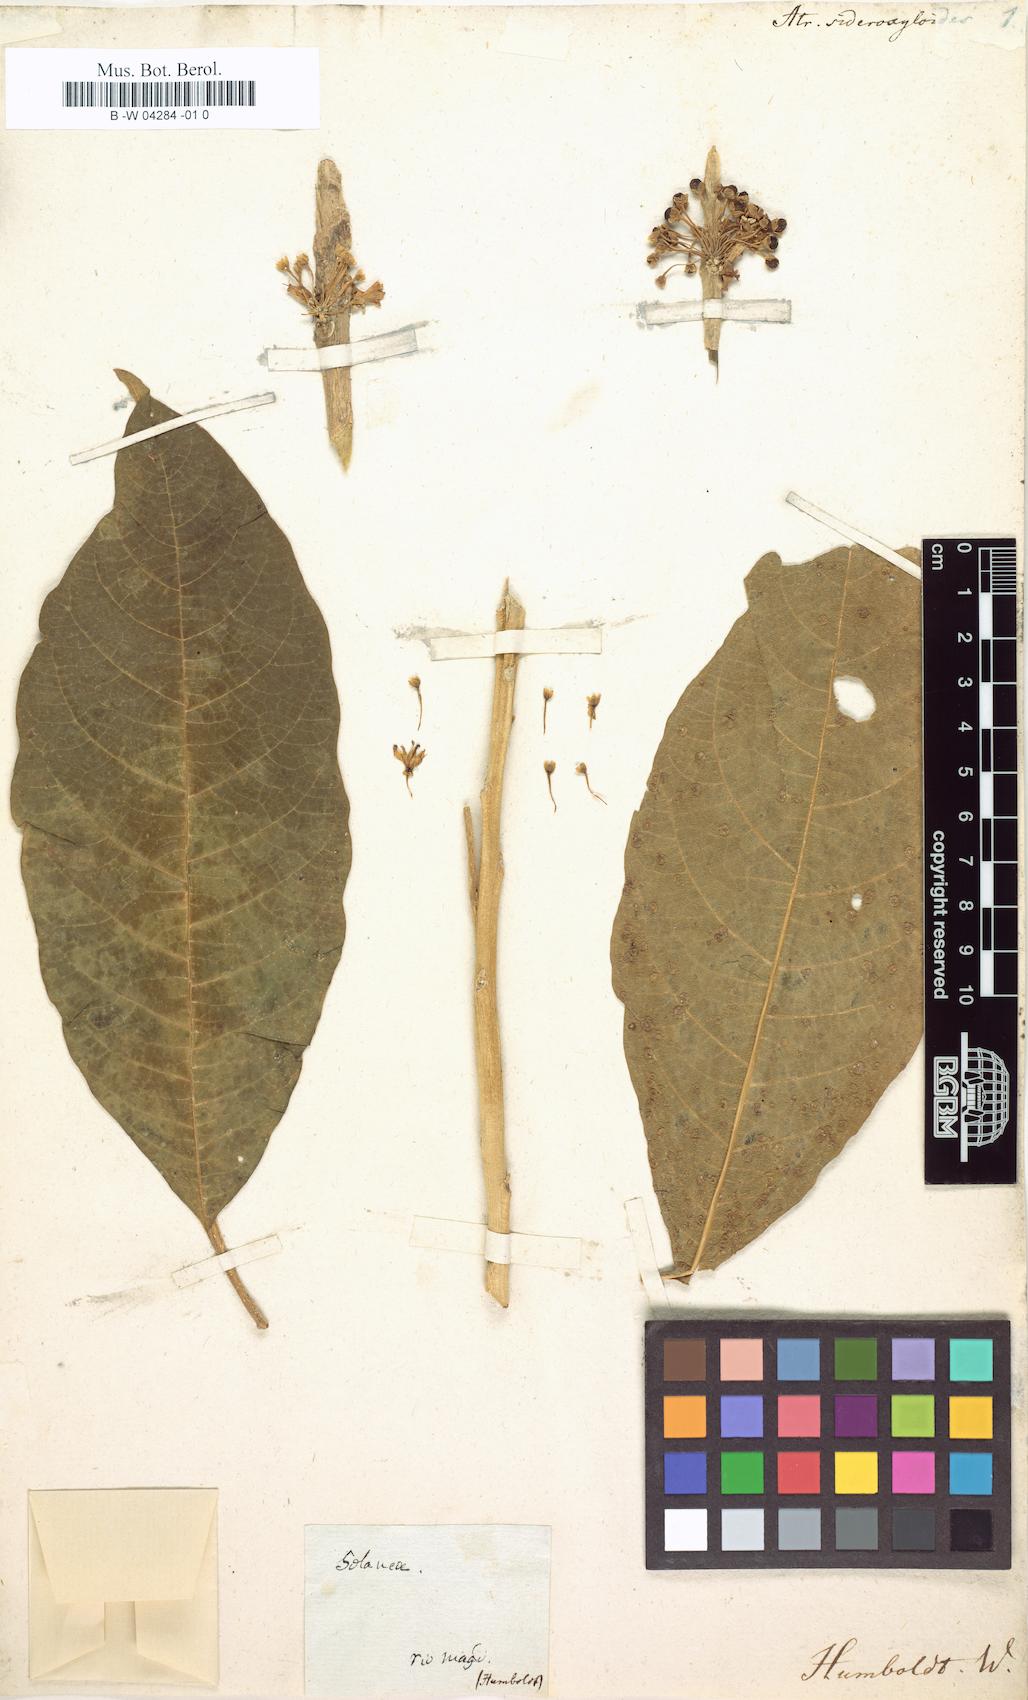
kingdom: Plantae
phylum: Tracheophyta
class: Magnoliopsida
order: Solanales
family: Solanaceae
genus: Iochroma
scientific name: Iochroma arborescens
